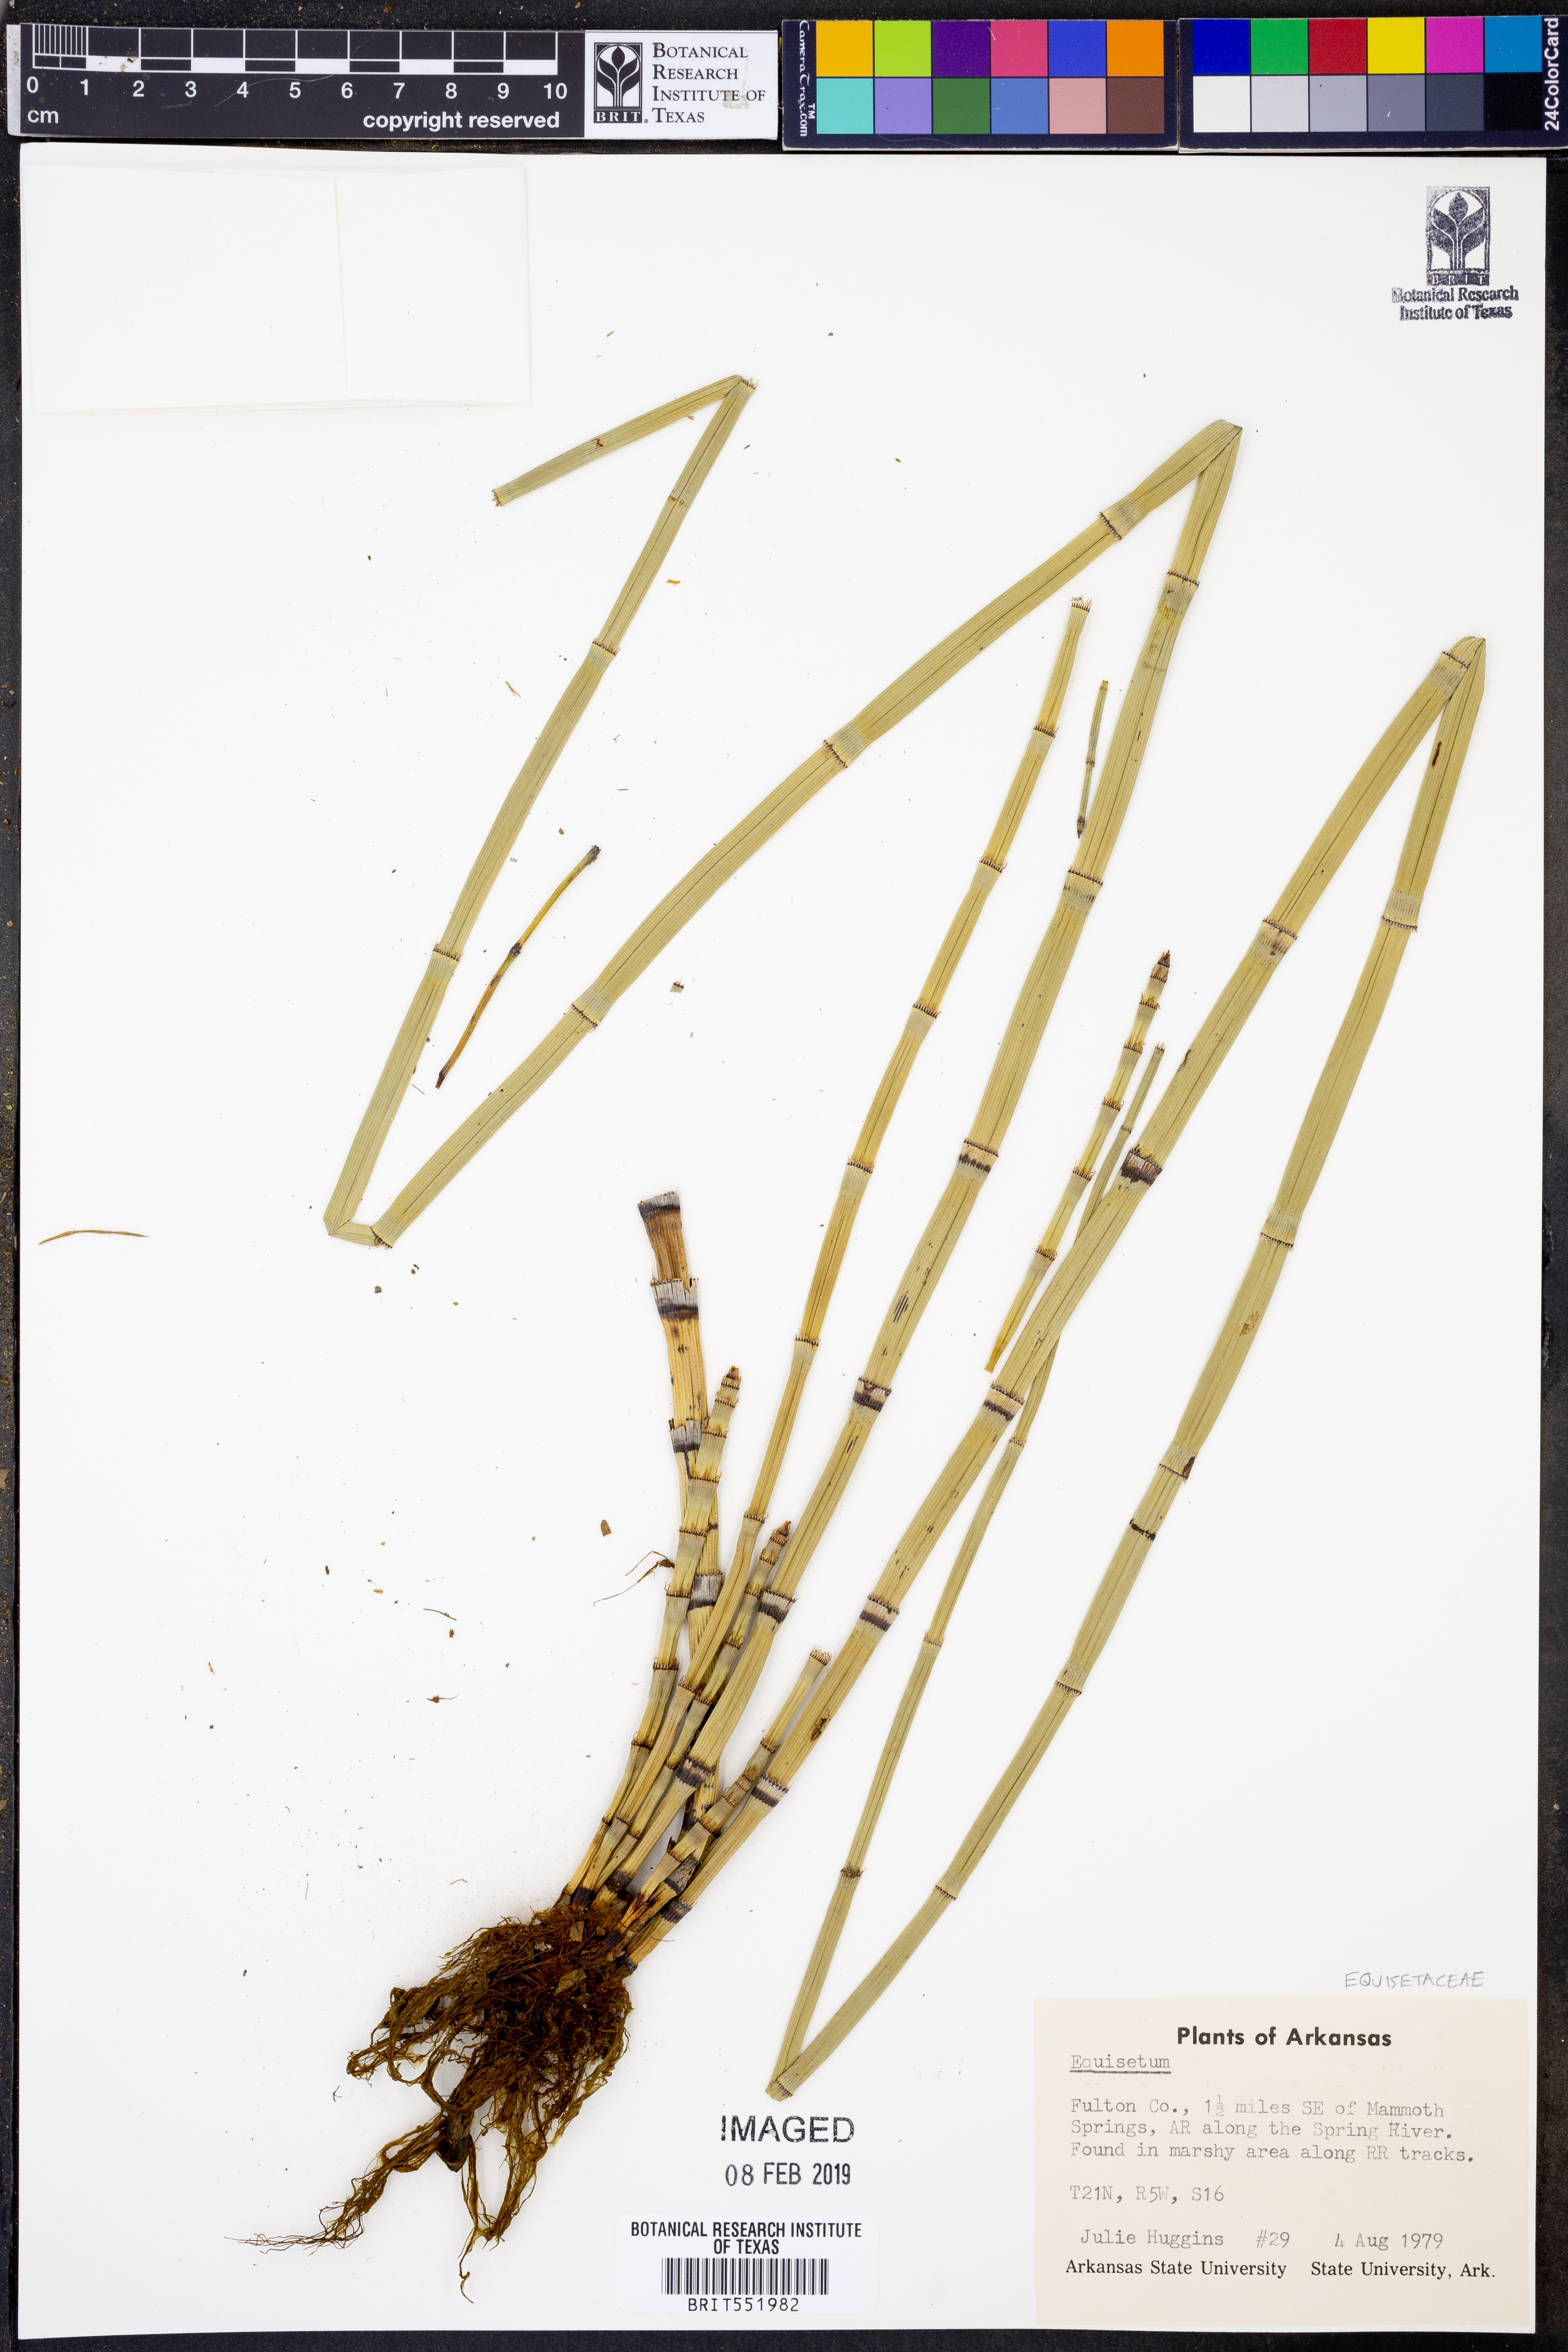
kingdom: Plantae
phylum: Tracheophyta
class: Polypodiopsida
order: Equisetales
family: Equisetaceae
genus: Equisetum
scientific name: Equisetum variegatum
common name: Variegated horsetail
